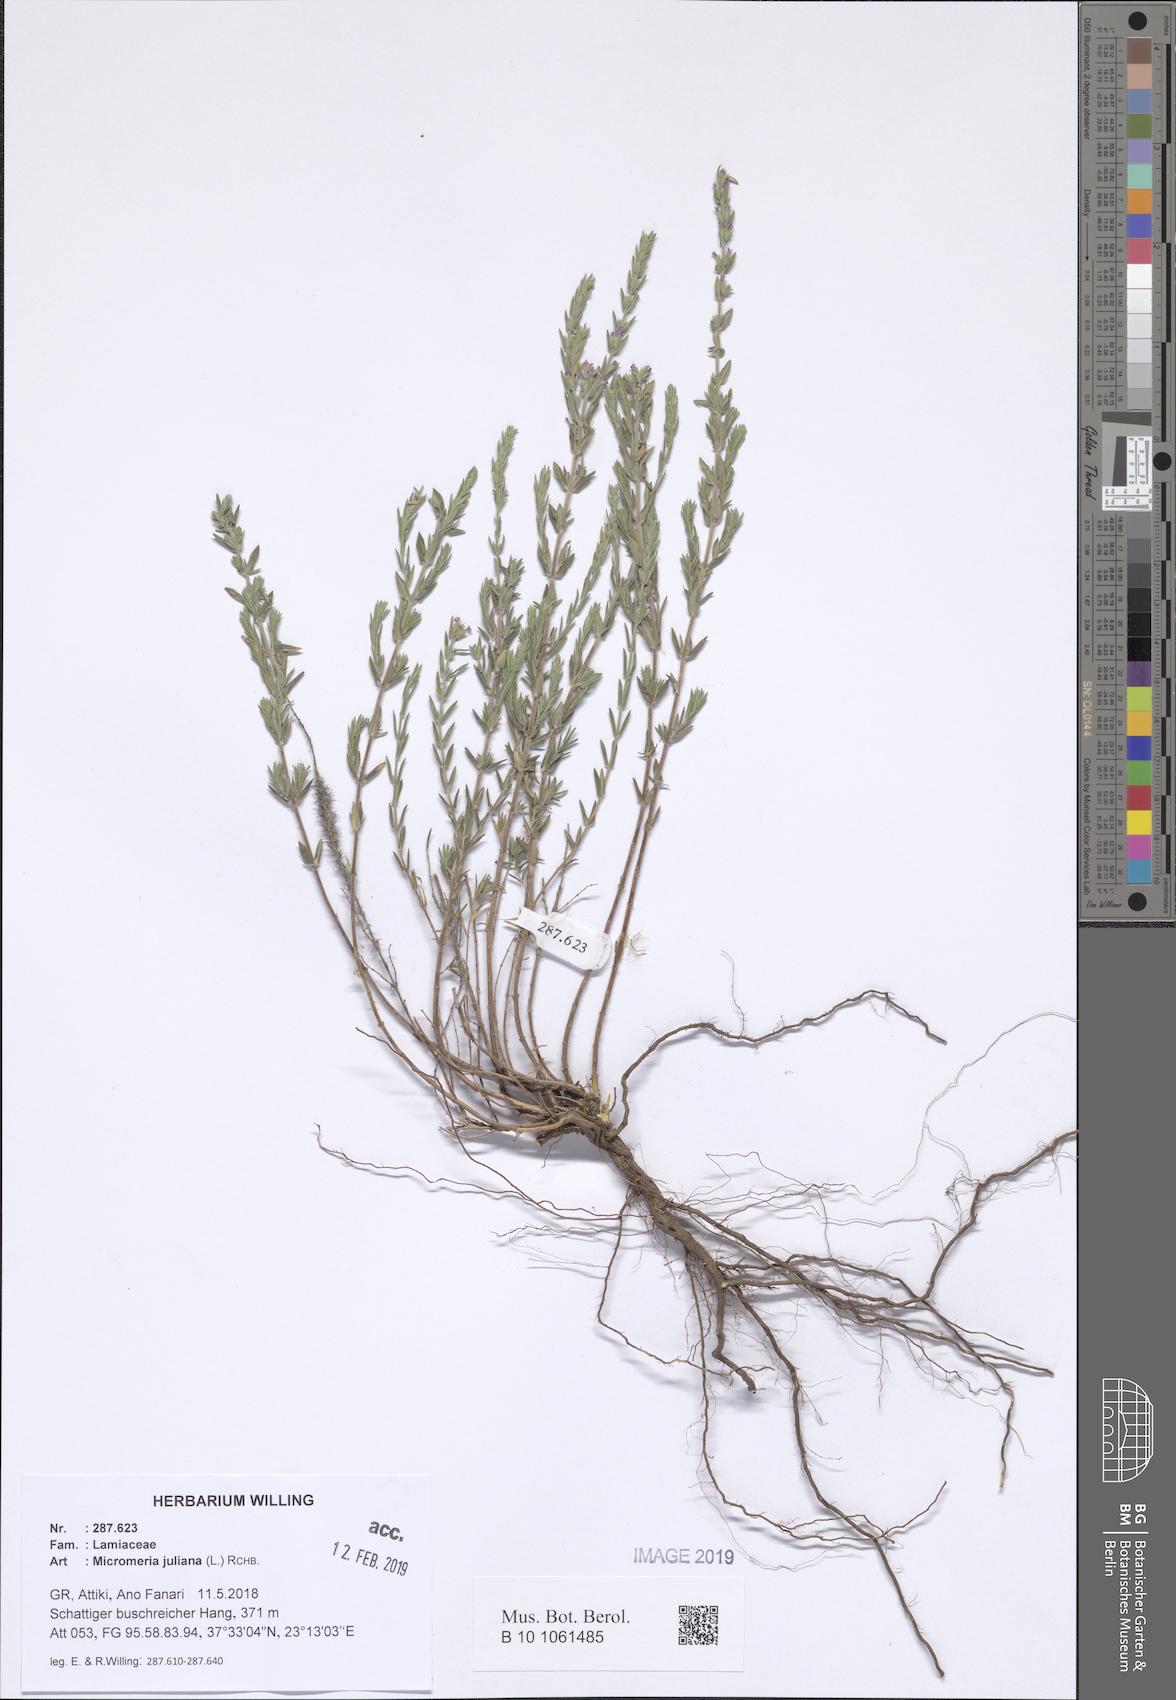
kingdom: Plantae
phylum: Tracheophyta
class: Magnoliopsida
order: Lamiales
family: Lamiaceae
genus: Micromeria
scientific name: Micromeria juliana
